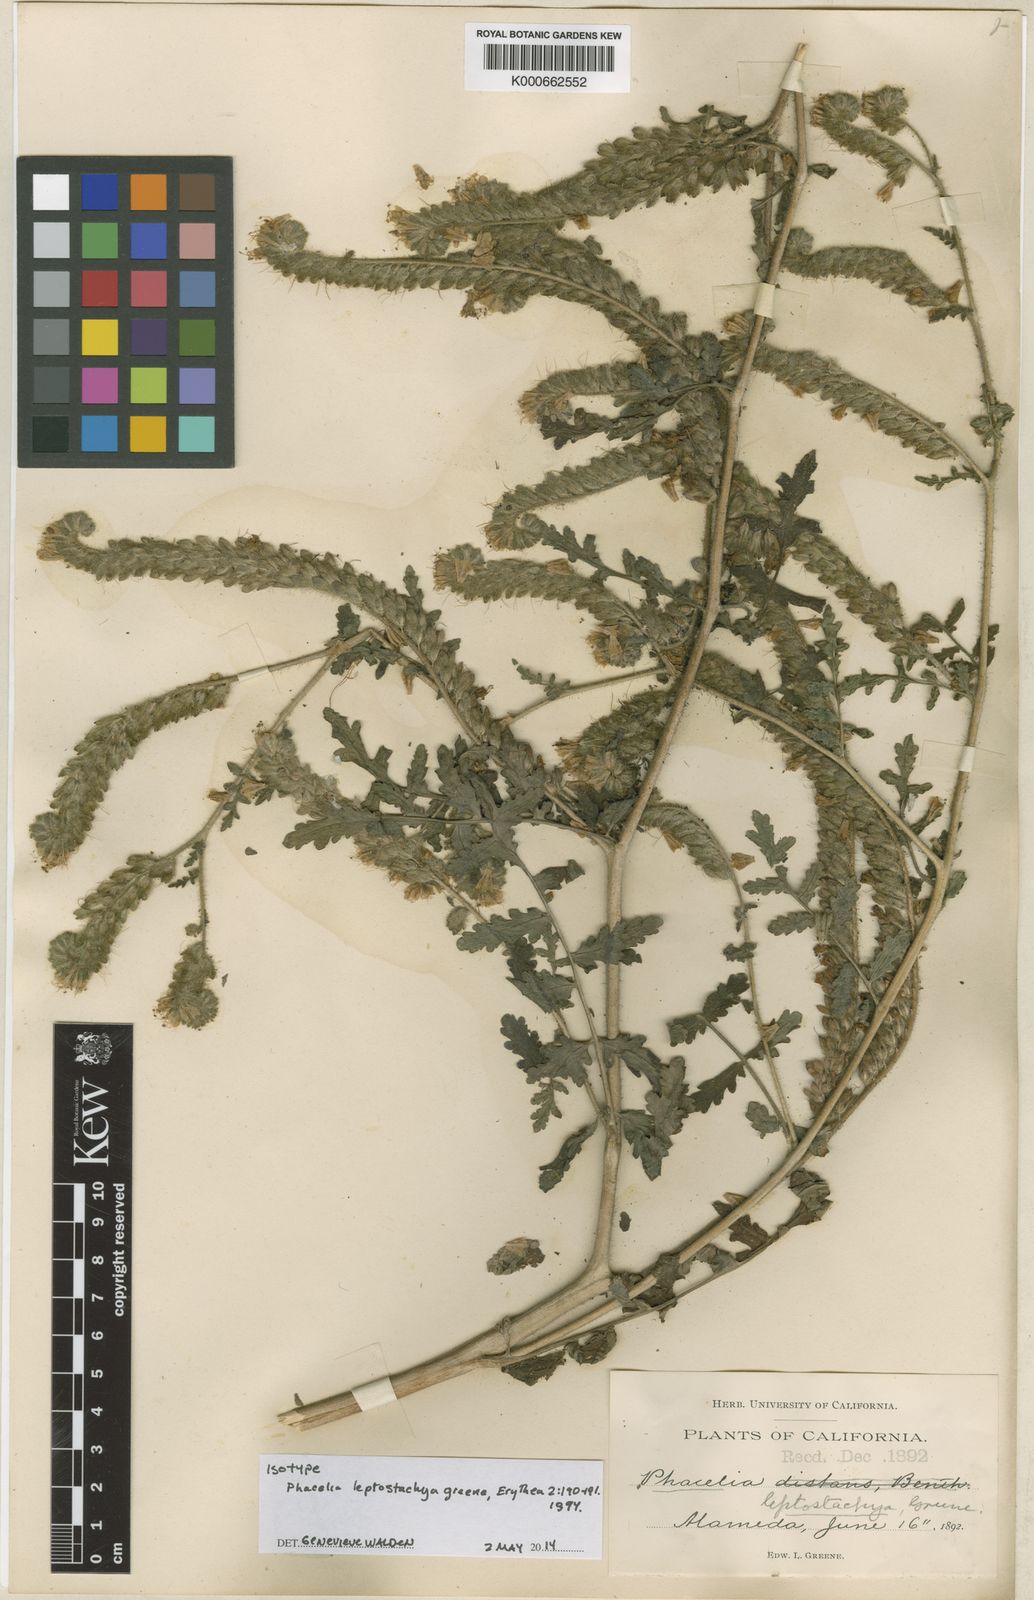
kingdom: Plantae
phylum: Tracheophyta
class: Magnoliopsida
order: Boraginales
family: Hydrophyllaceae
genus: Phacelia
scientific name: Phacelia distans
